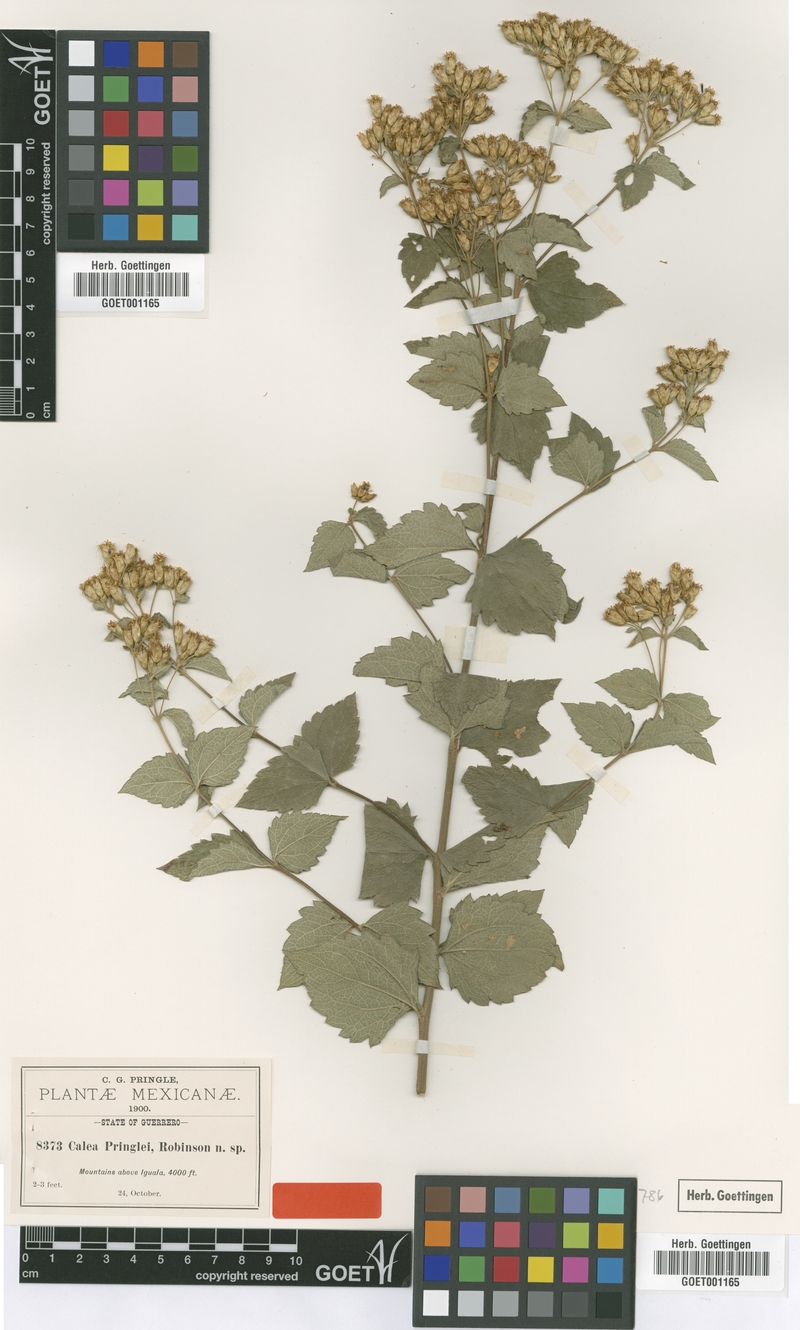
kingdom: Plantae
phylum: Tracheophyta
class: Magnoliopsida
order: Asterales
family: Asteraceae
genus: Calea
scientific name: Calea ternifolia
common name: Mexican calea
